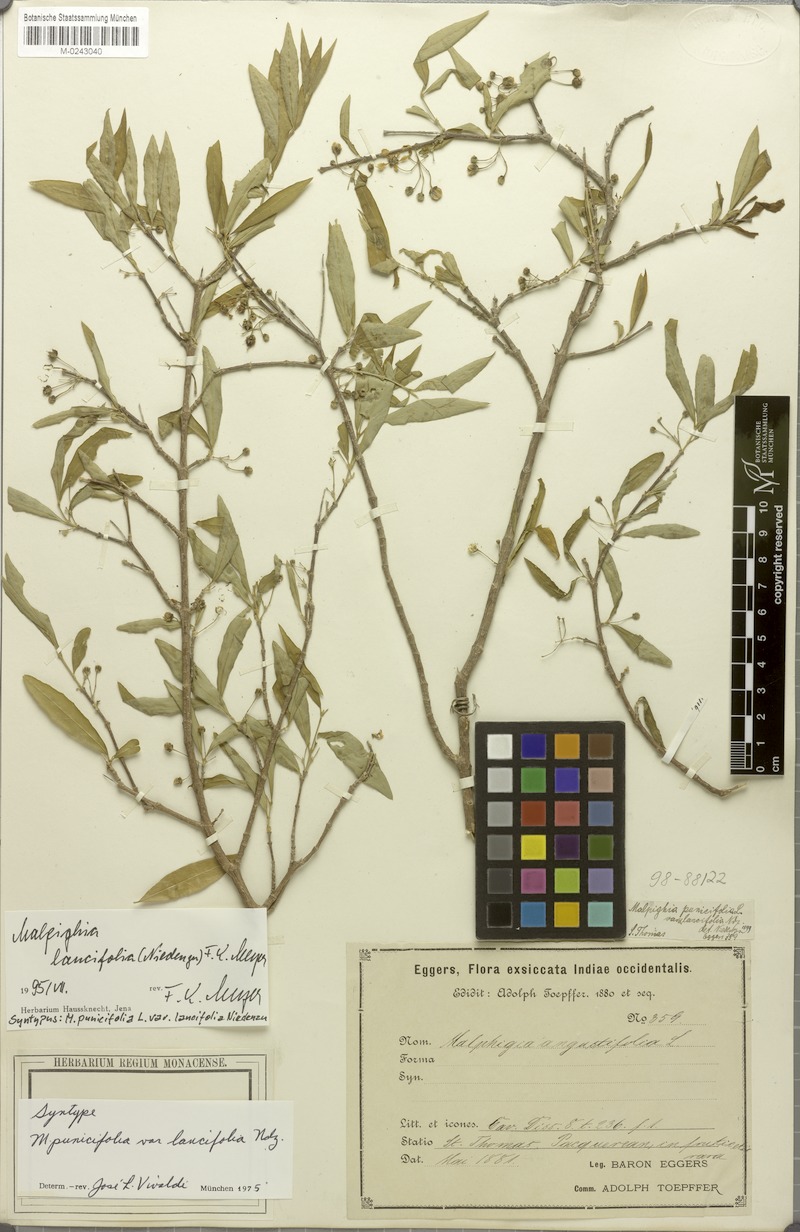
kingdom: Plantae
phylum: Tracheophyta
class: Magnoliopsida
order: Malpighiales
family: Malpighiaceae
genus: Malpighia
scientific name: Malpighia emarginata
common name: Barbados cherry
